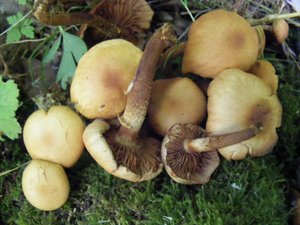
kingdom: Fungi
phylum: Basidiomycota
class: Agaricomycetes
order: Agaricales
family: Strophariaceae
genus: Kuehneromyces
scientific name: Kuehneromyces mutabilis
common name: foranderlig skælhat
